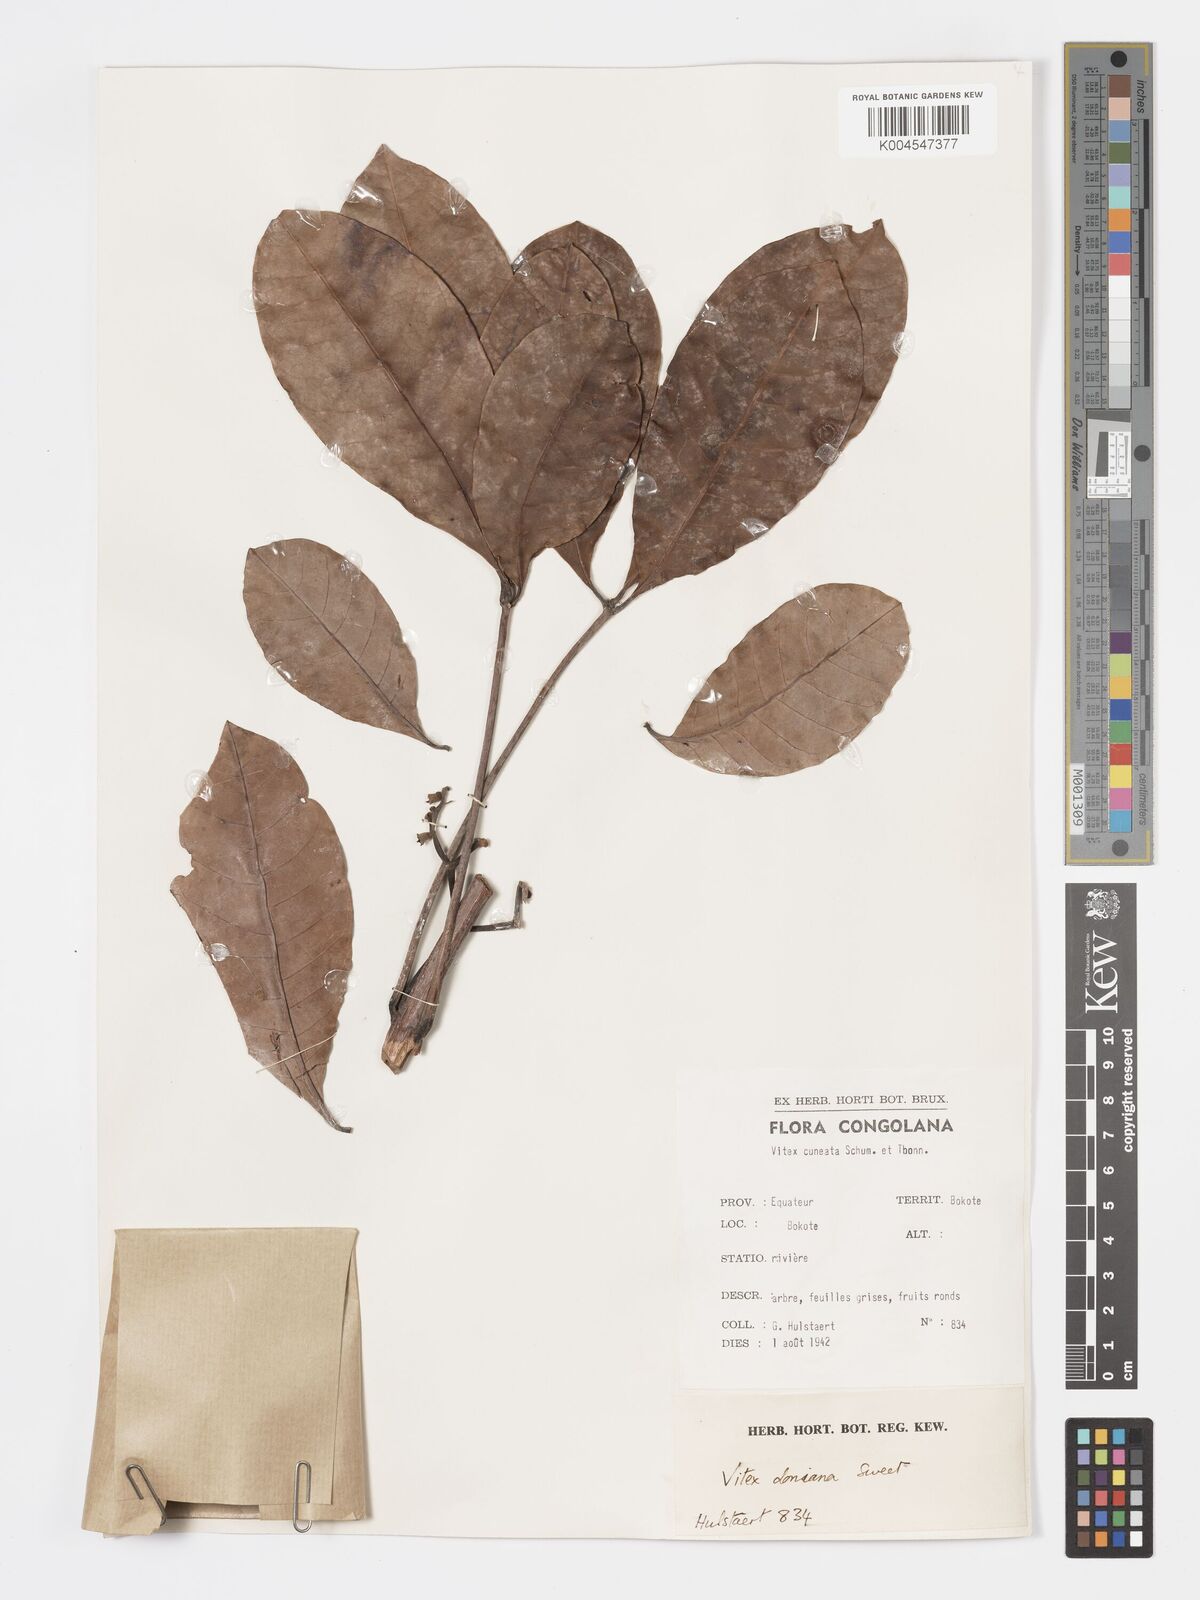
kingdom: Plantae
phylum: Tracheophyta
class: Magnoliopsida
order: Lamiales
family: Lamiaceae
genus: Vitex
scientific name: Vitex doniana
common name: Black plum
